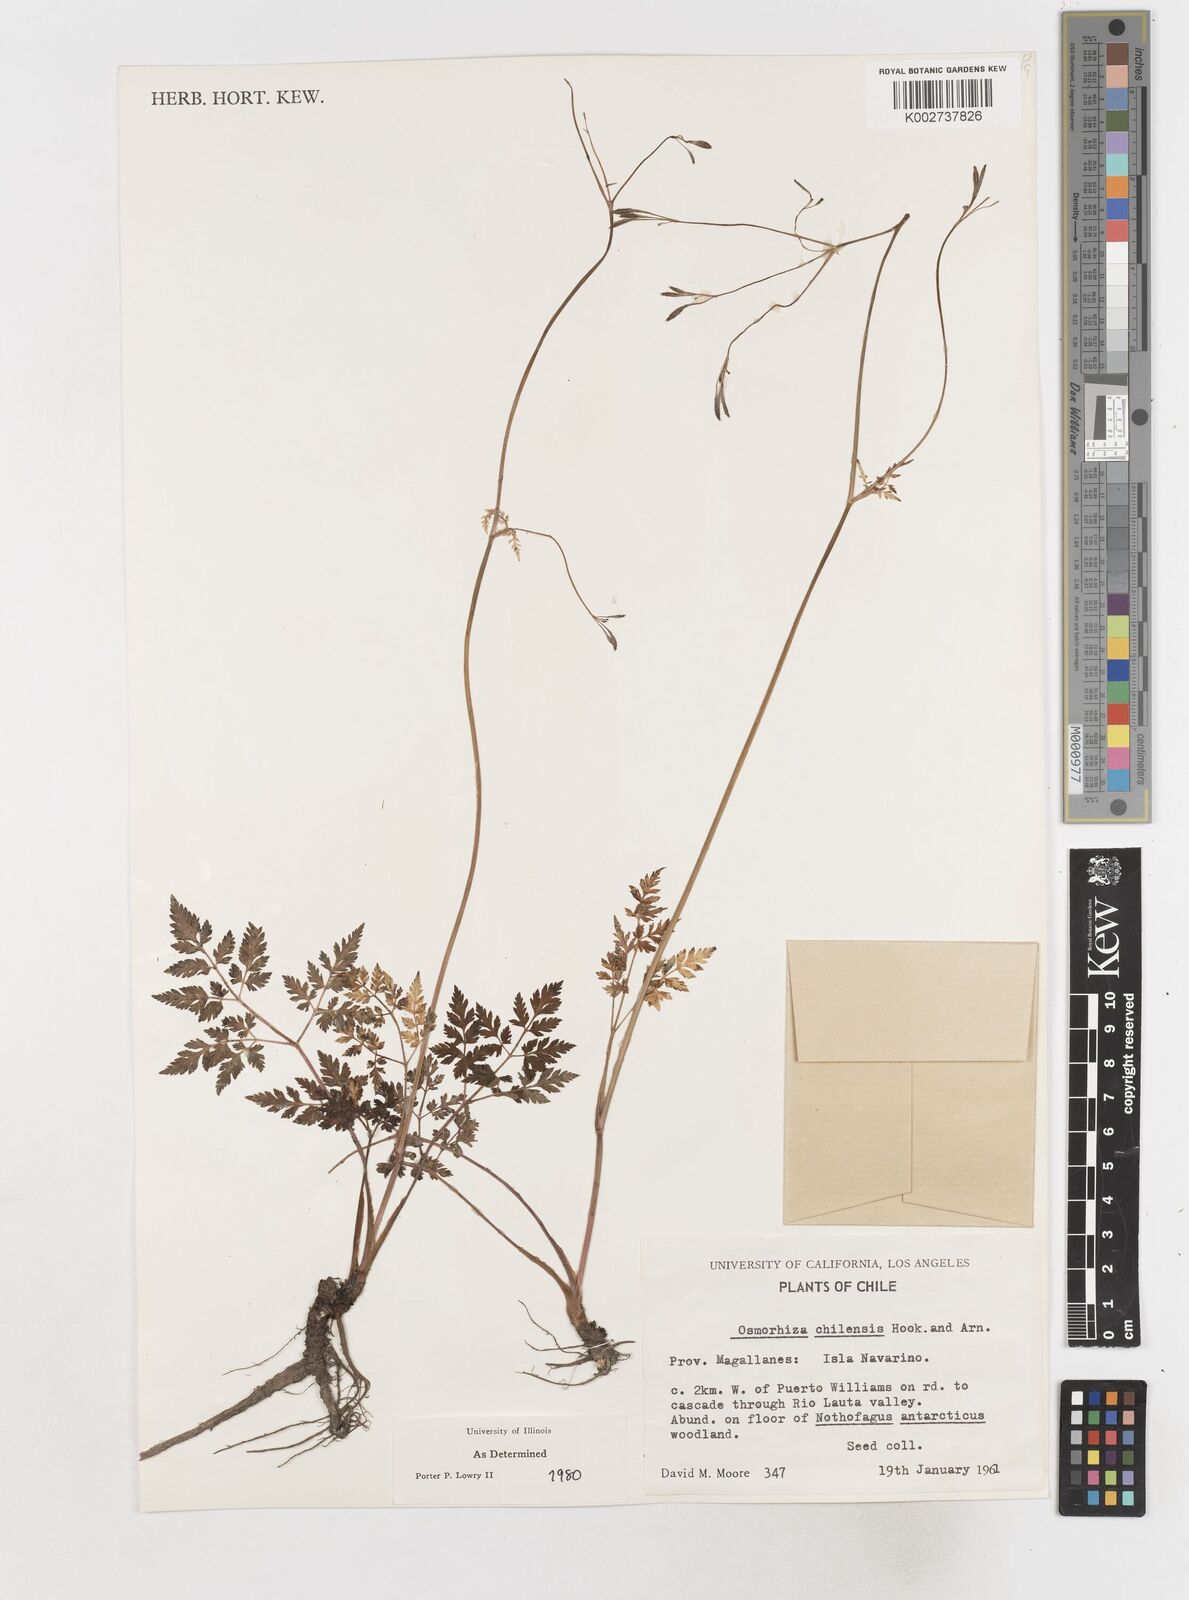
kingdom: Plantae
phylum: Tracheophyta
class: Magnoliopsida
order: Apiales
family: Apiaceae
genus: Osmorhiza
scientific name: Osmorhiza berteroi
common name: Mountain sweet cicely
